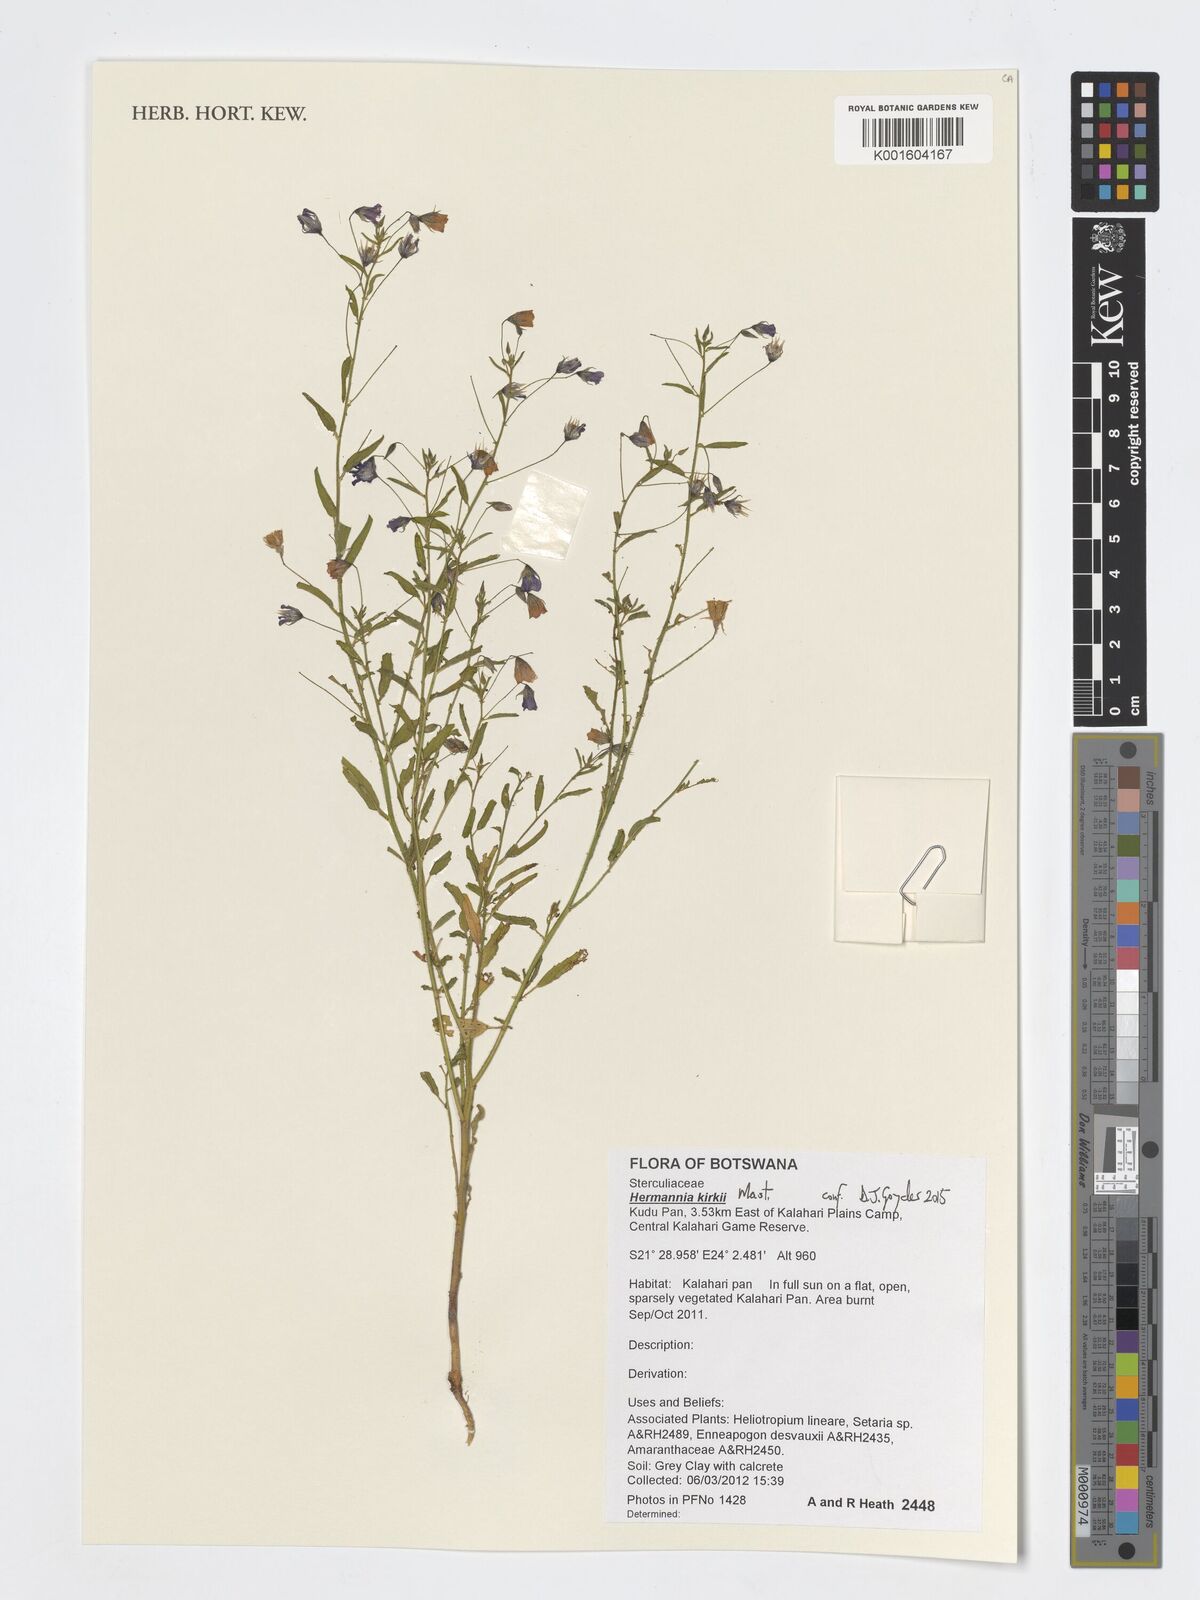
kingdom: Plantae
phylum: Tracheophyta
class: Magnoliopsida
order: Malvales
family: Malvaceae
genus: Hermannia
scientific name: Hermannia modesta
